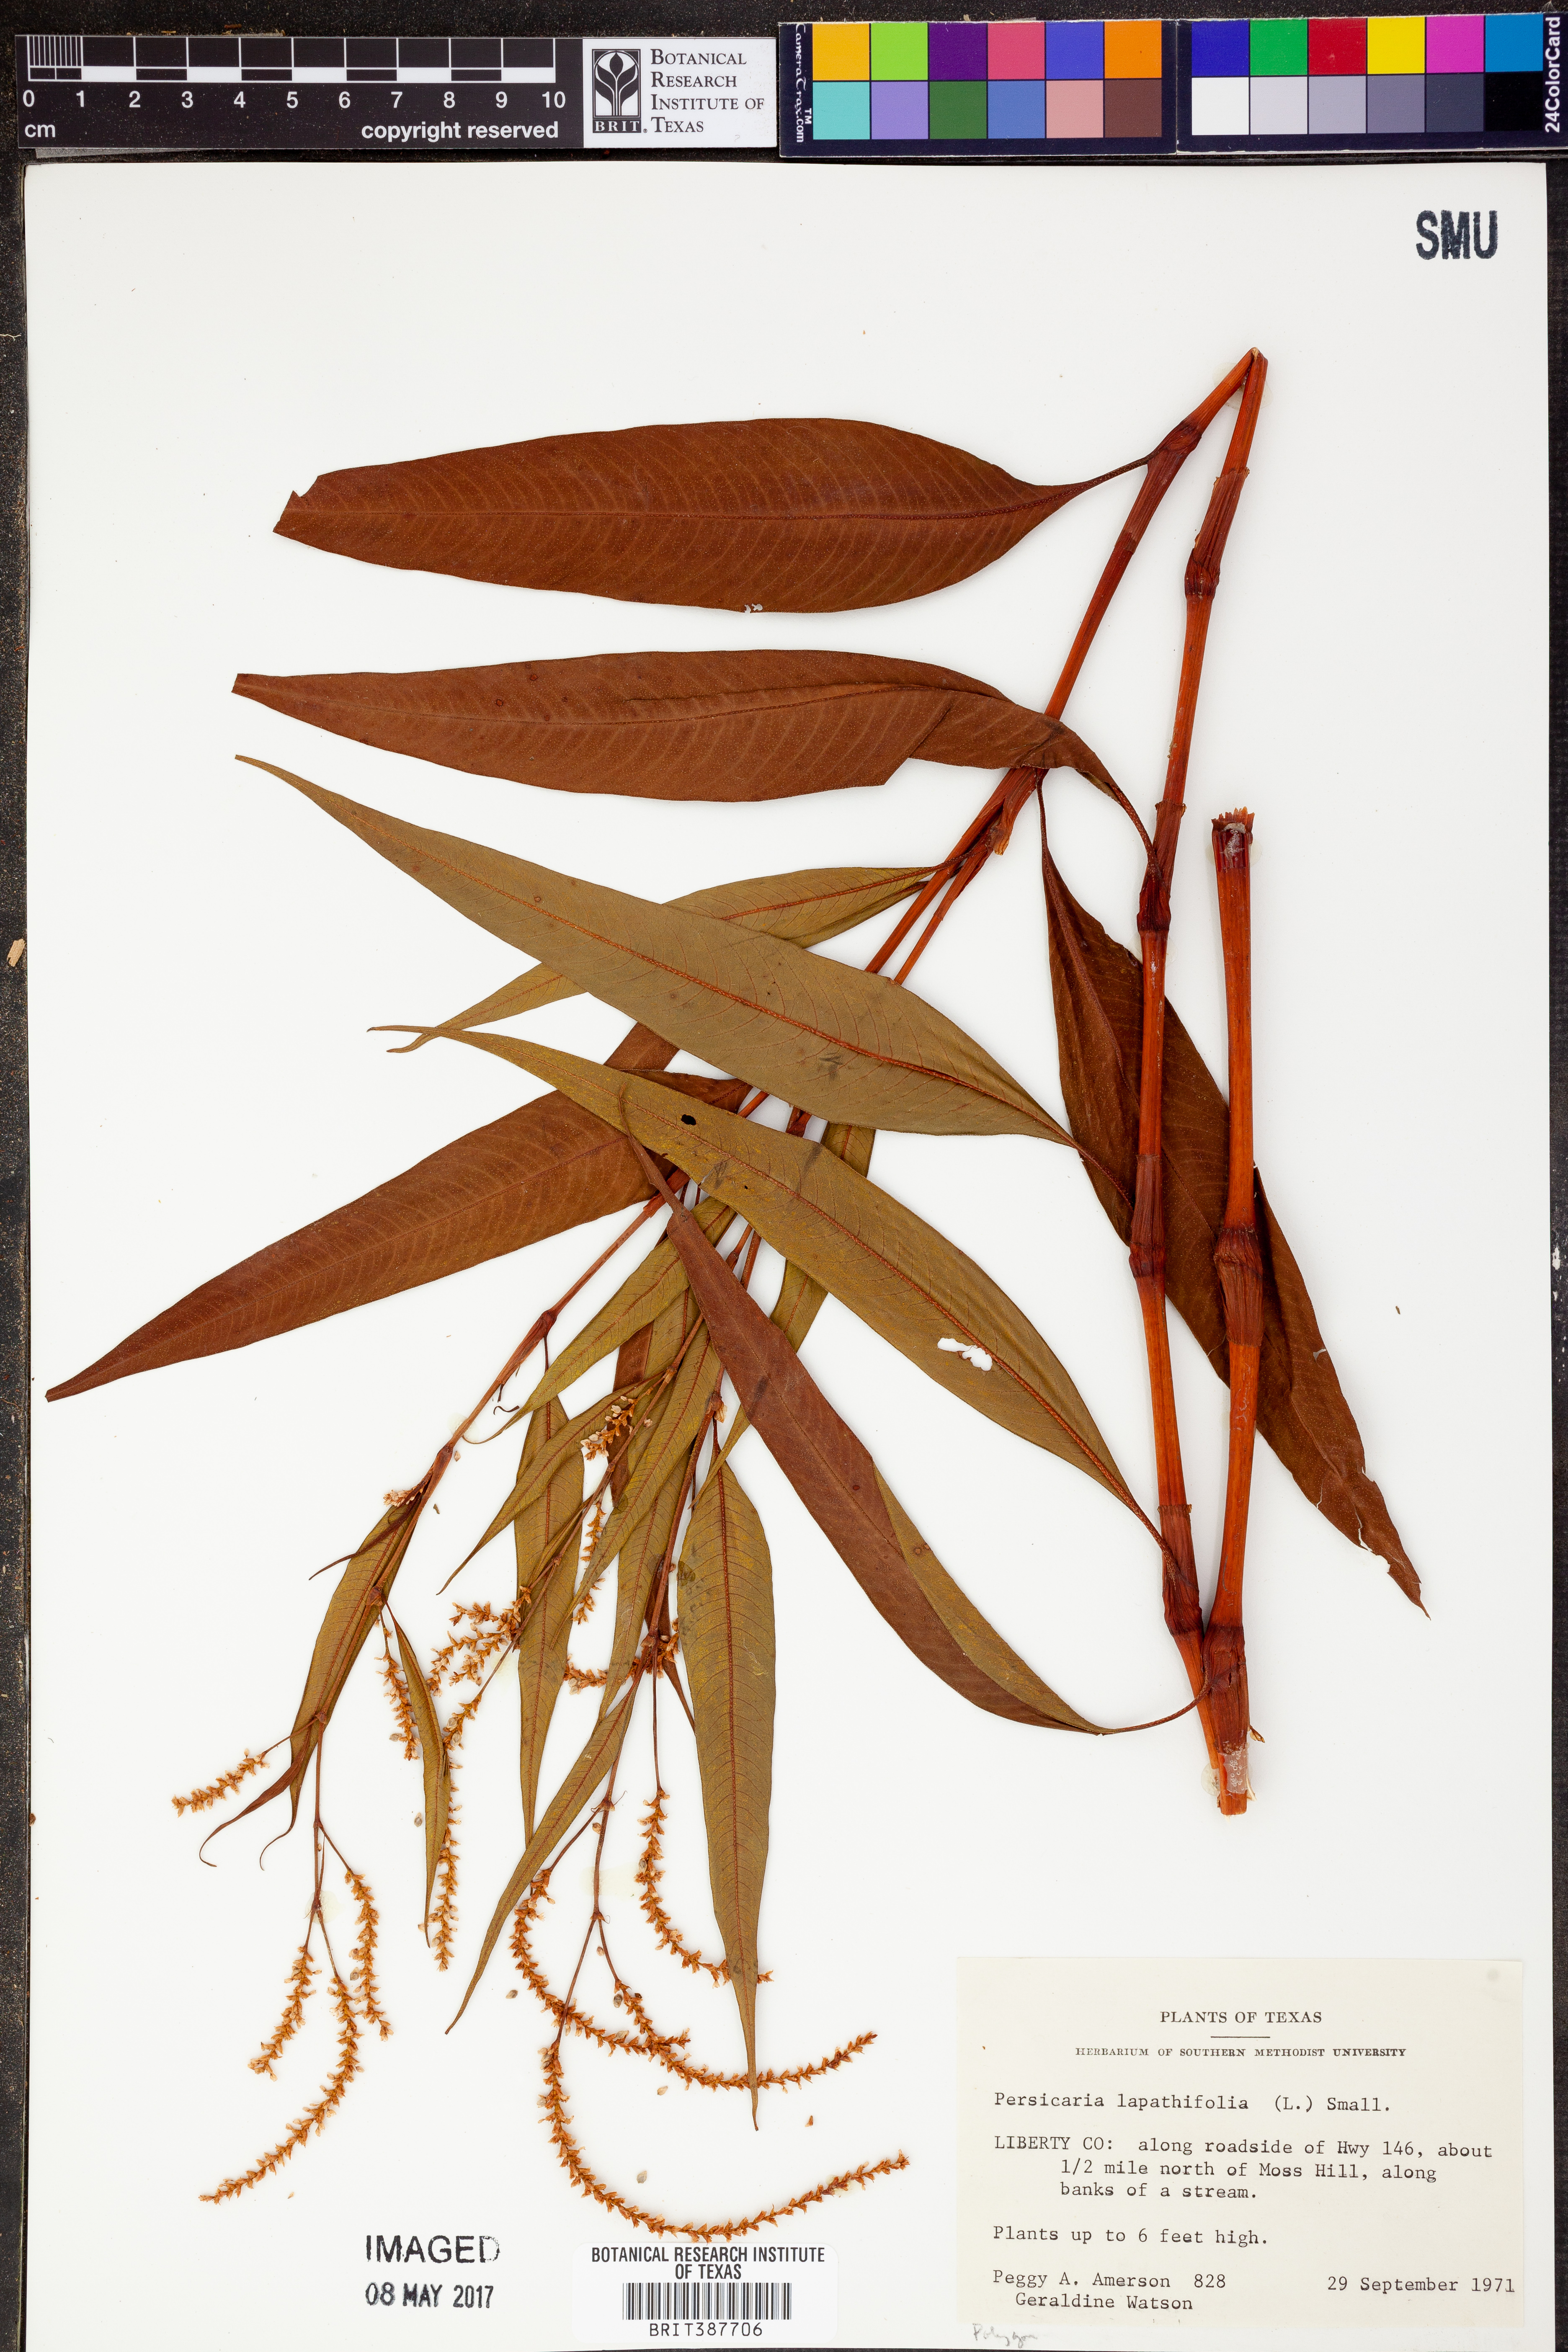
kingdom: Plantae
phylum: Tracheophyta
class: Magnoliopsida
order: Caryophyllales
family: Polygonaceae
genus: Persicaria
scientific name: Persicaria lapathifolia
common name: Curlytop knotweed
